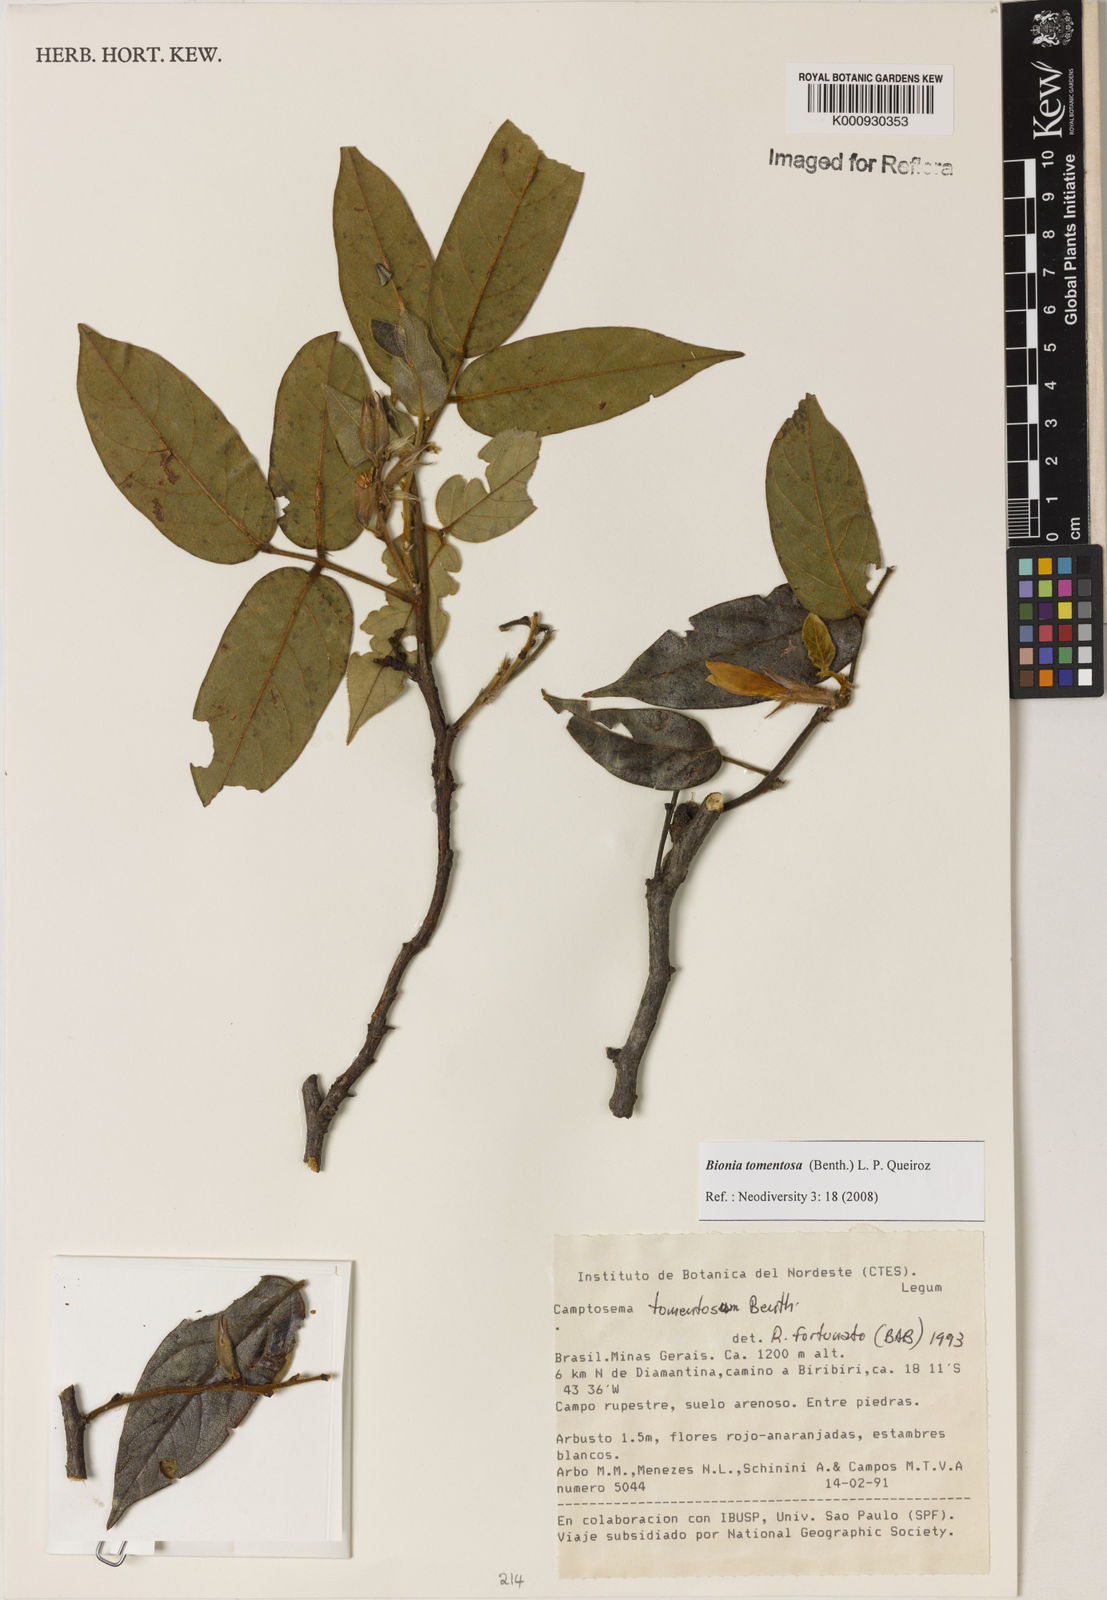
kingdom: Plantae
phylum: Tracheophyta
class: Magnoliopsida
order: Fabales
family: Fabaceae
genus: Camptosema
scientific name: Camptosema tomentosum
